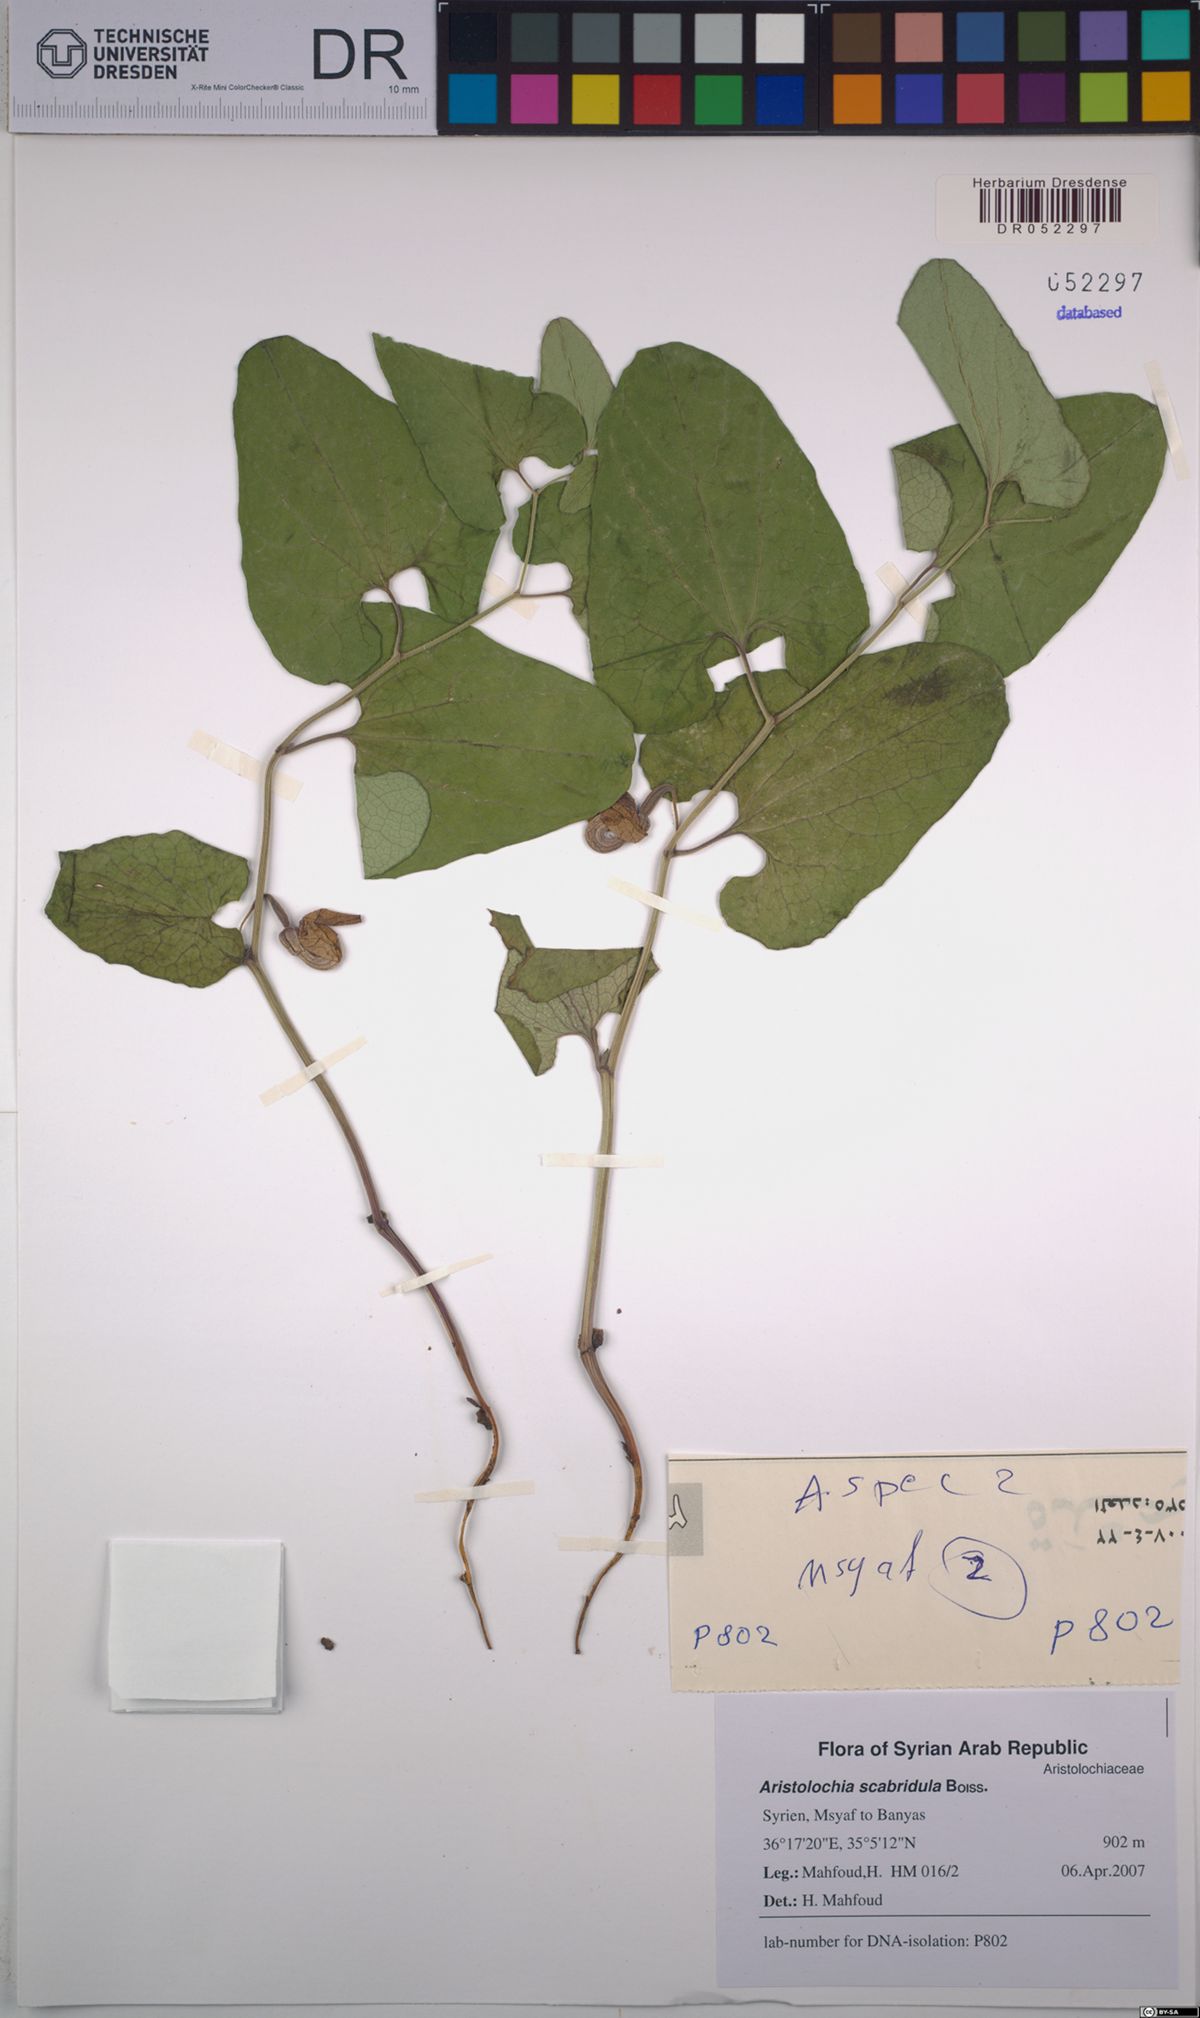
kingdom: Plantae
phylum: Tracheophyta
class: Magnoliopsida
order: Piperales
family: Aristolochiaceae
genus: Aristolochia
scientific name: Aristolochia paecilantha
